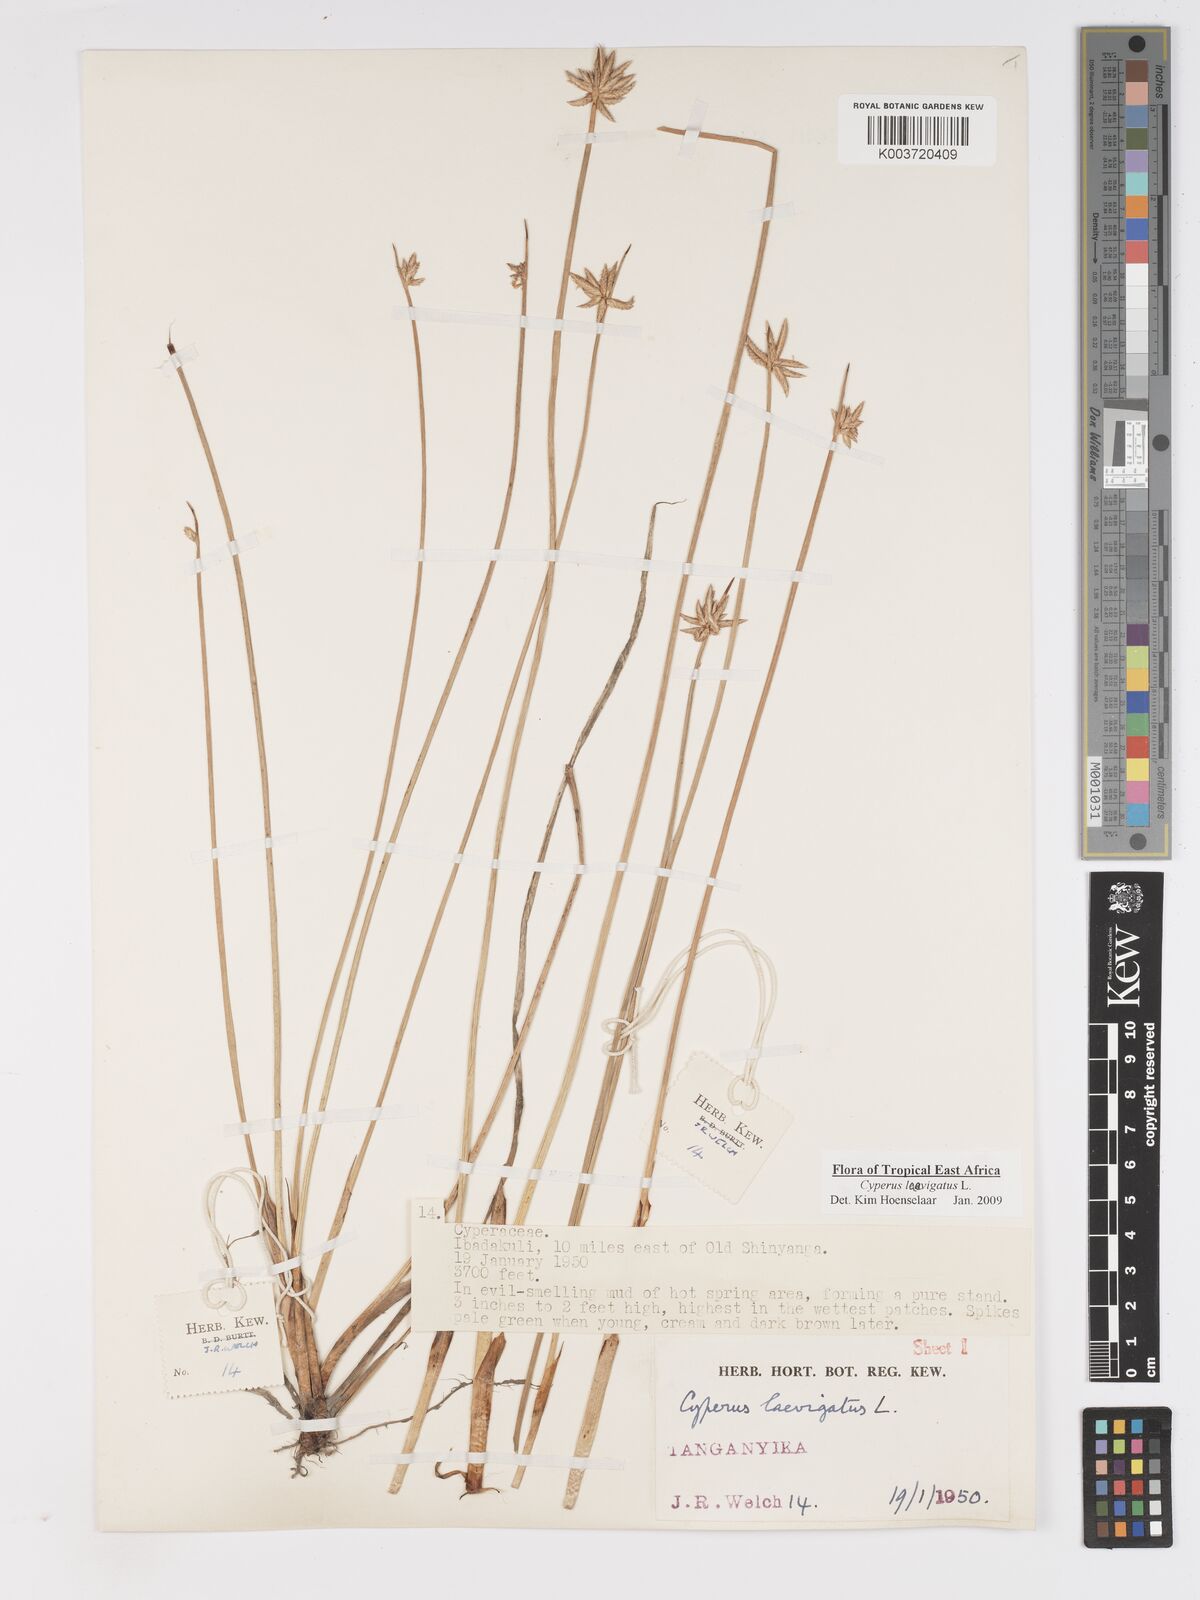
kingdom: Plantae
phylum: Tracheophyta
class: Liliopsida
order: Poales
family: Cyperaceae
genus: Cyperus
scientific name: Cyperus laevigatus
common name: Smooth flat sedge
